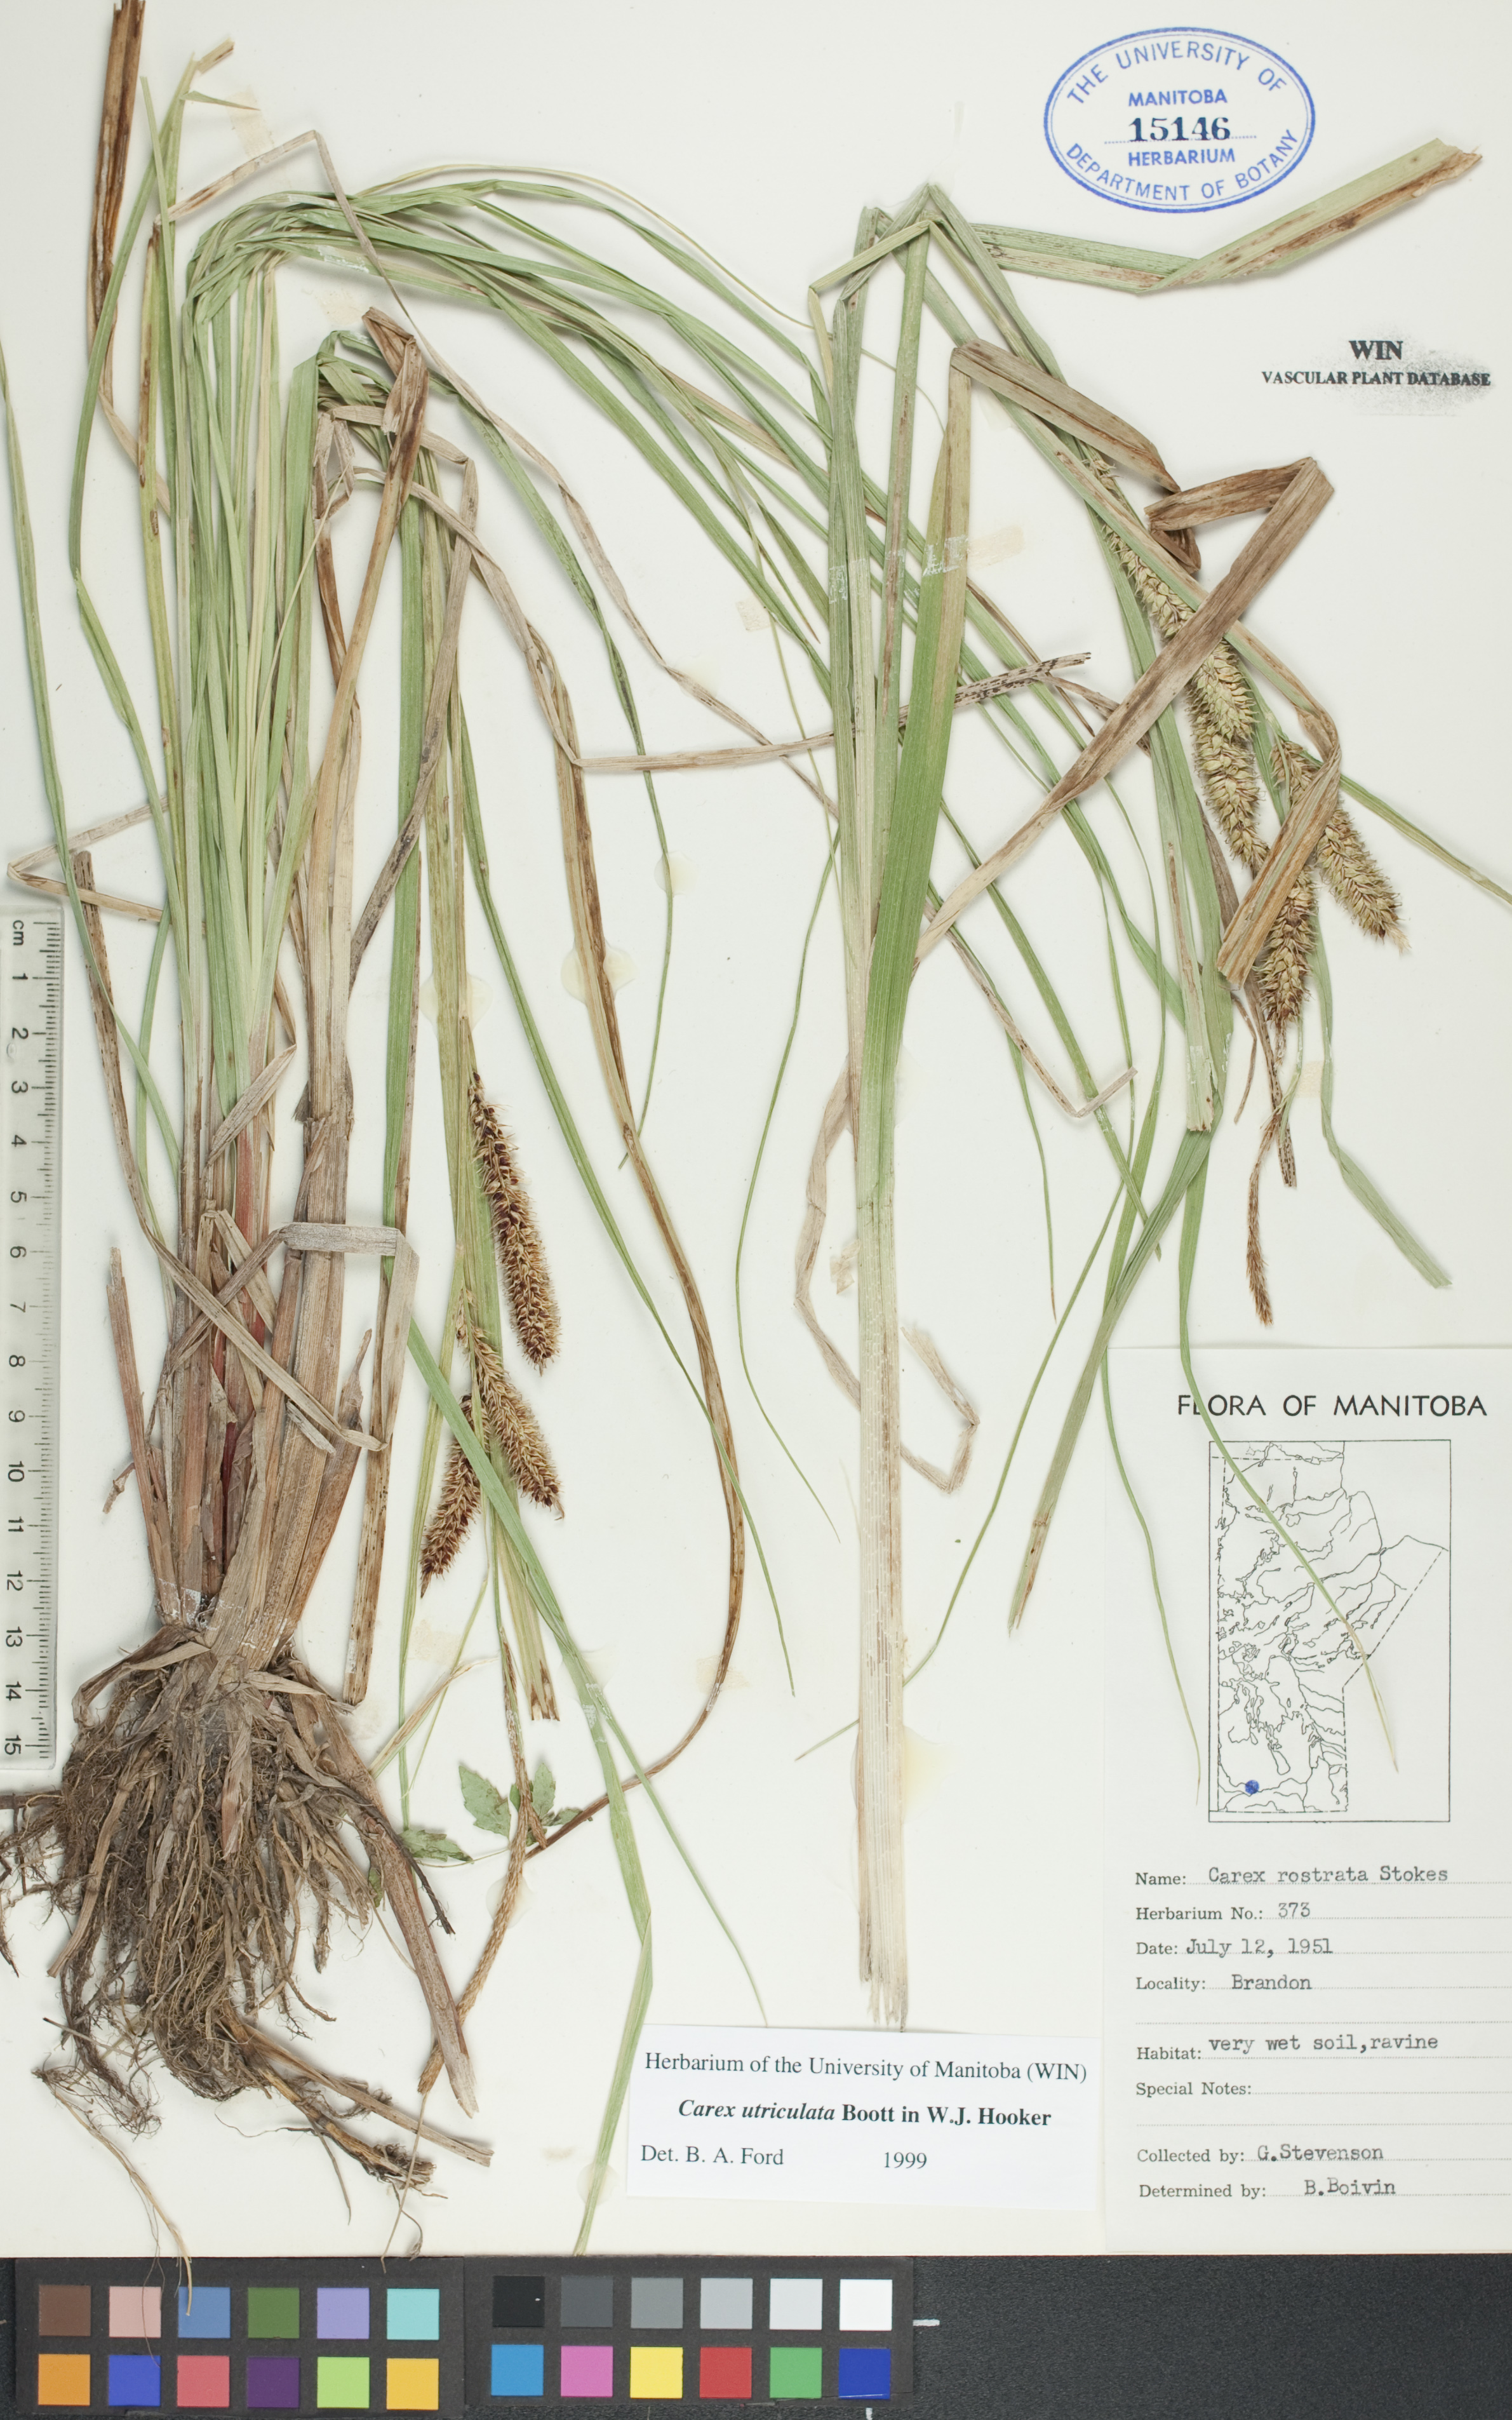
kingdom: Plantae
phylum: Tracheophyta
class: Liliopsida
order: Poales
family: Cyperaceae
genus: Carex
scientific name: Carex utriculata
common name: Beaked sedge
